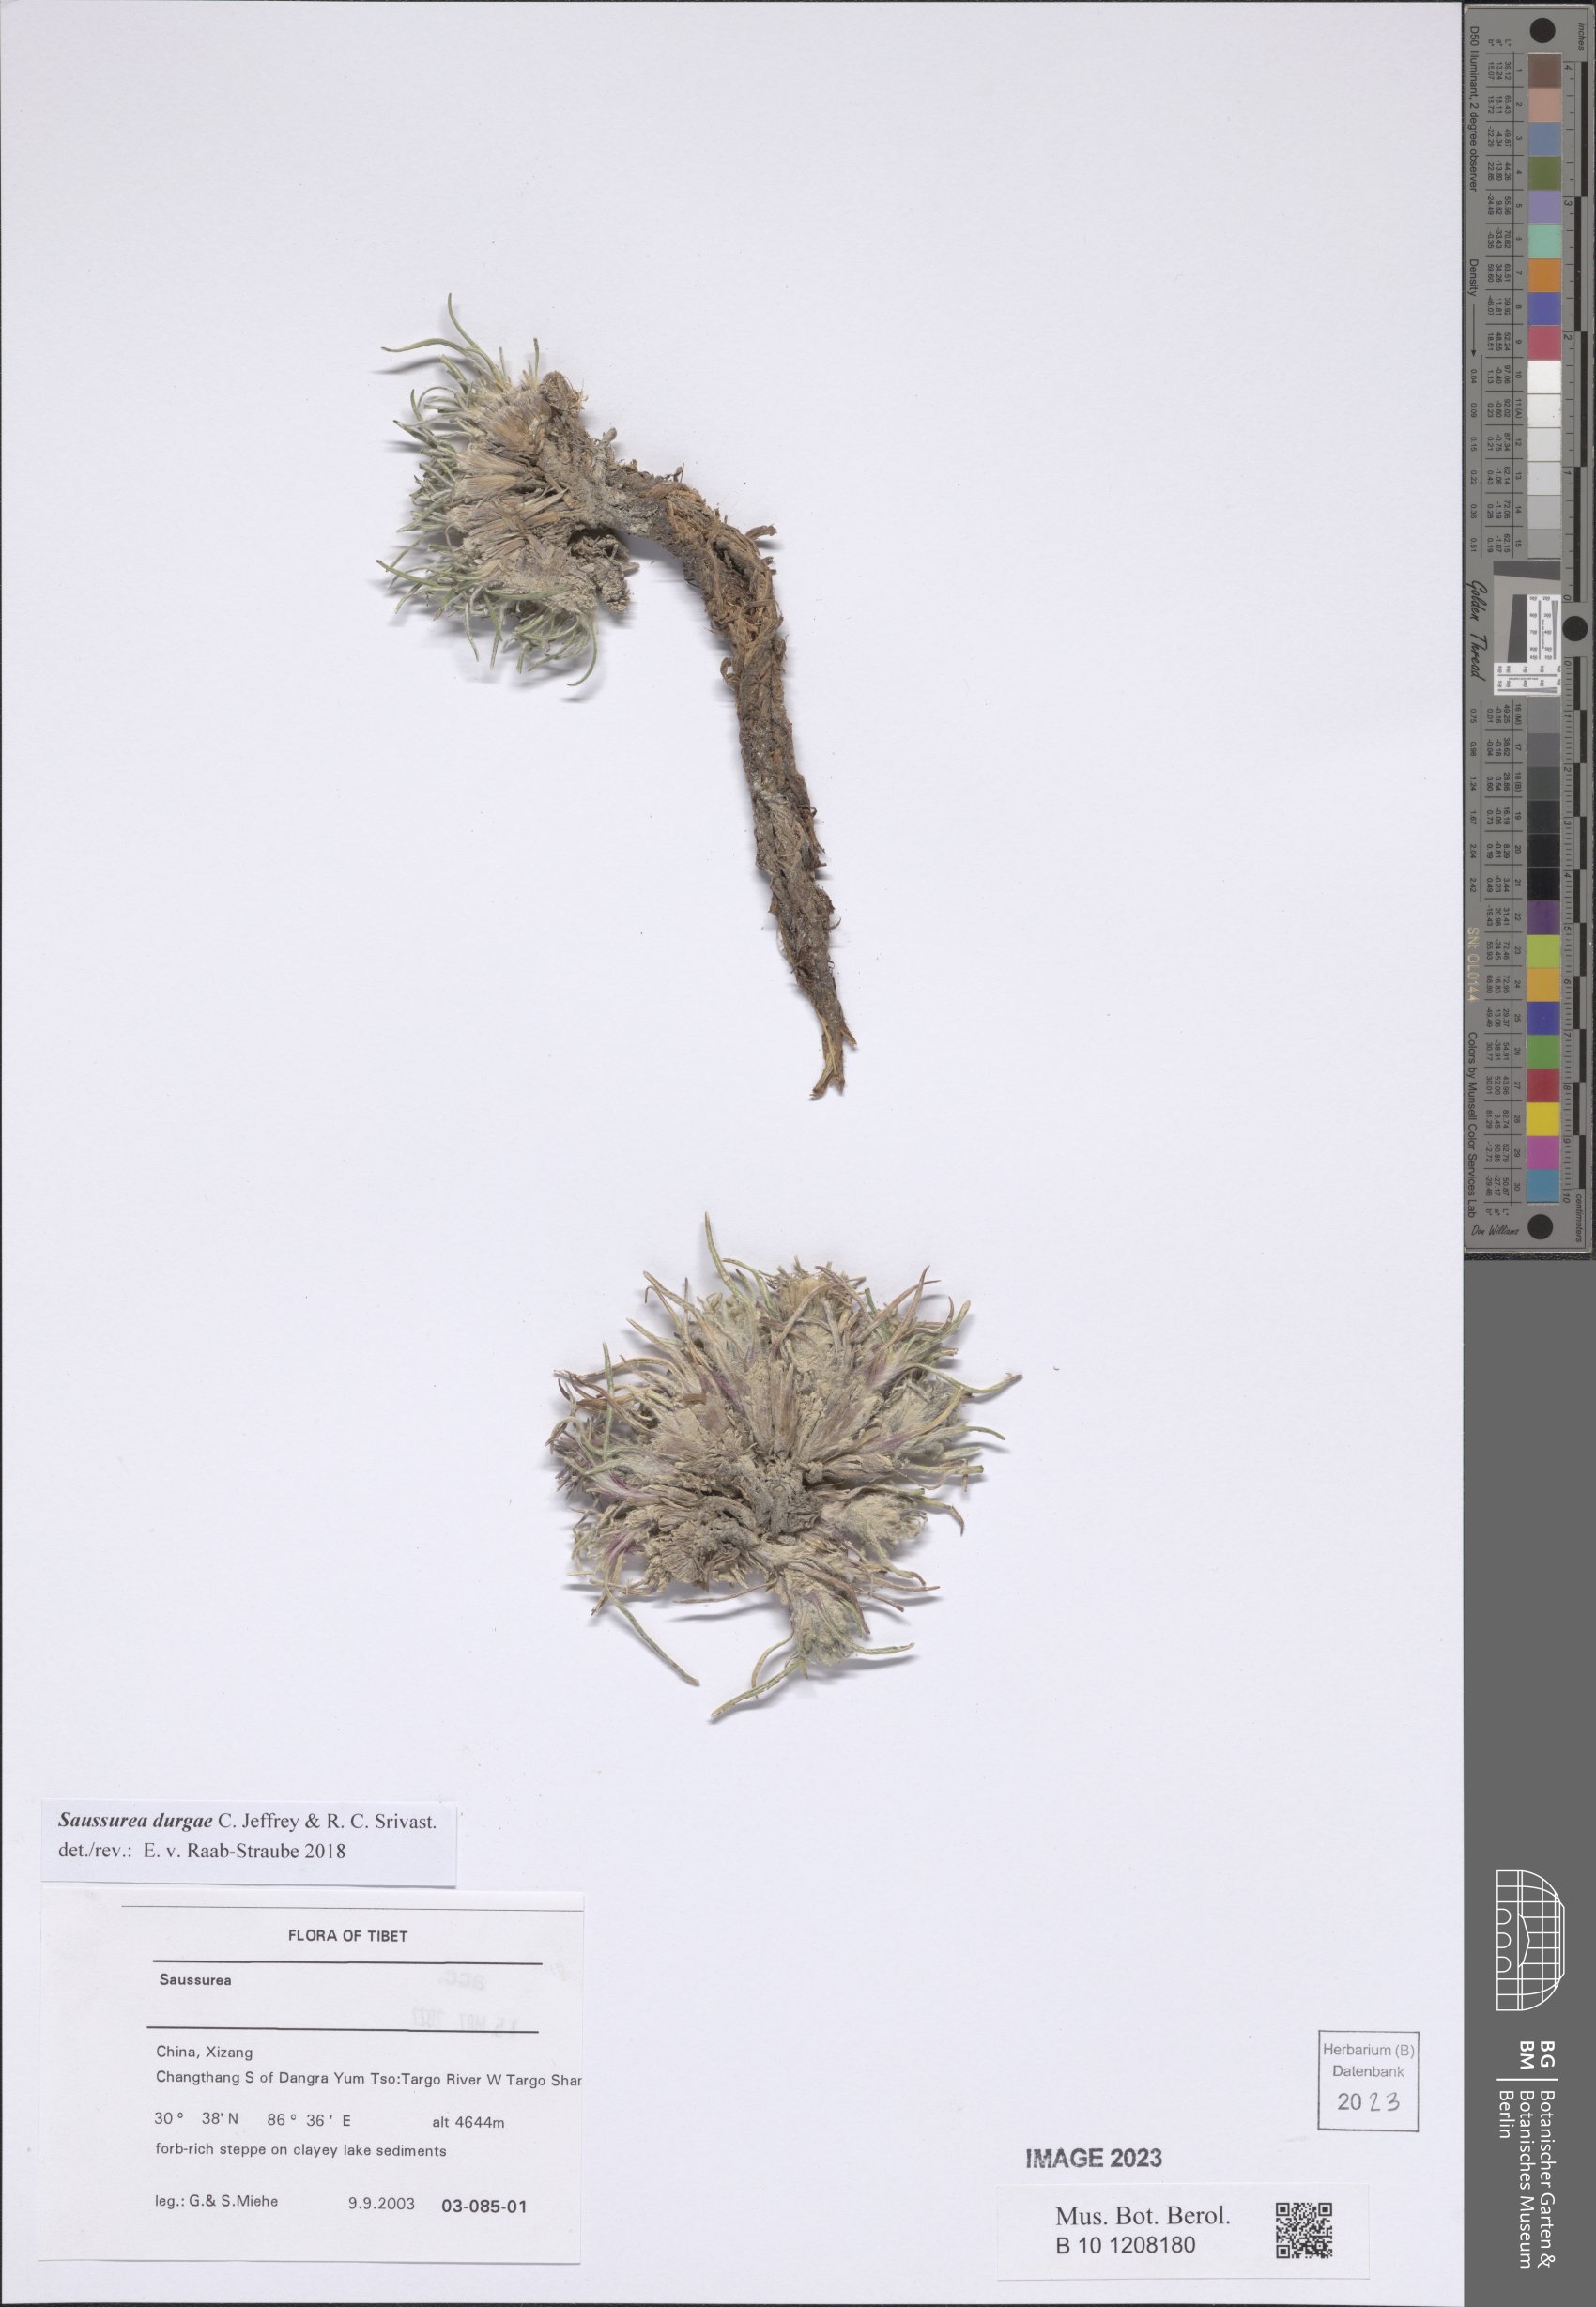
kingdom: Plantae
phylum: Tracheophyta
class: Magnoliopsida
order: Asterales
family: Asteraceae
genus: Saussurea
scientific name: Saussurea durgae
